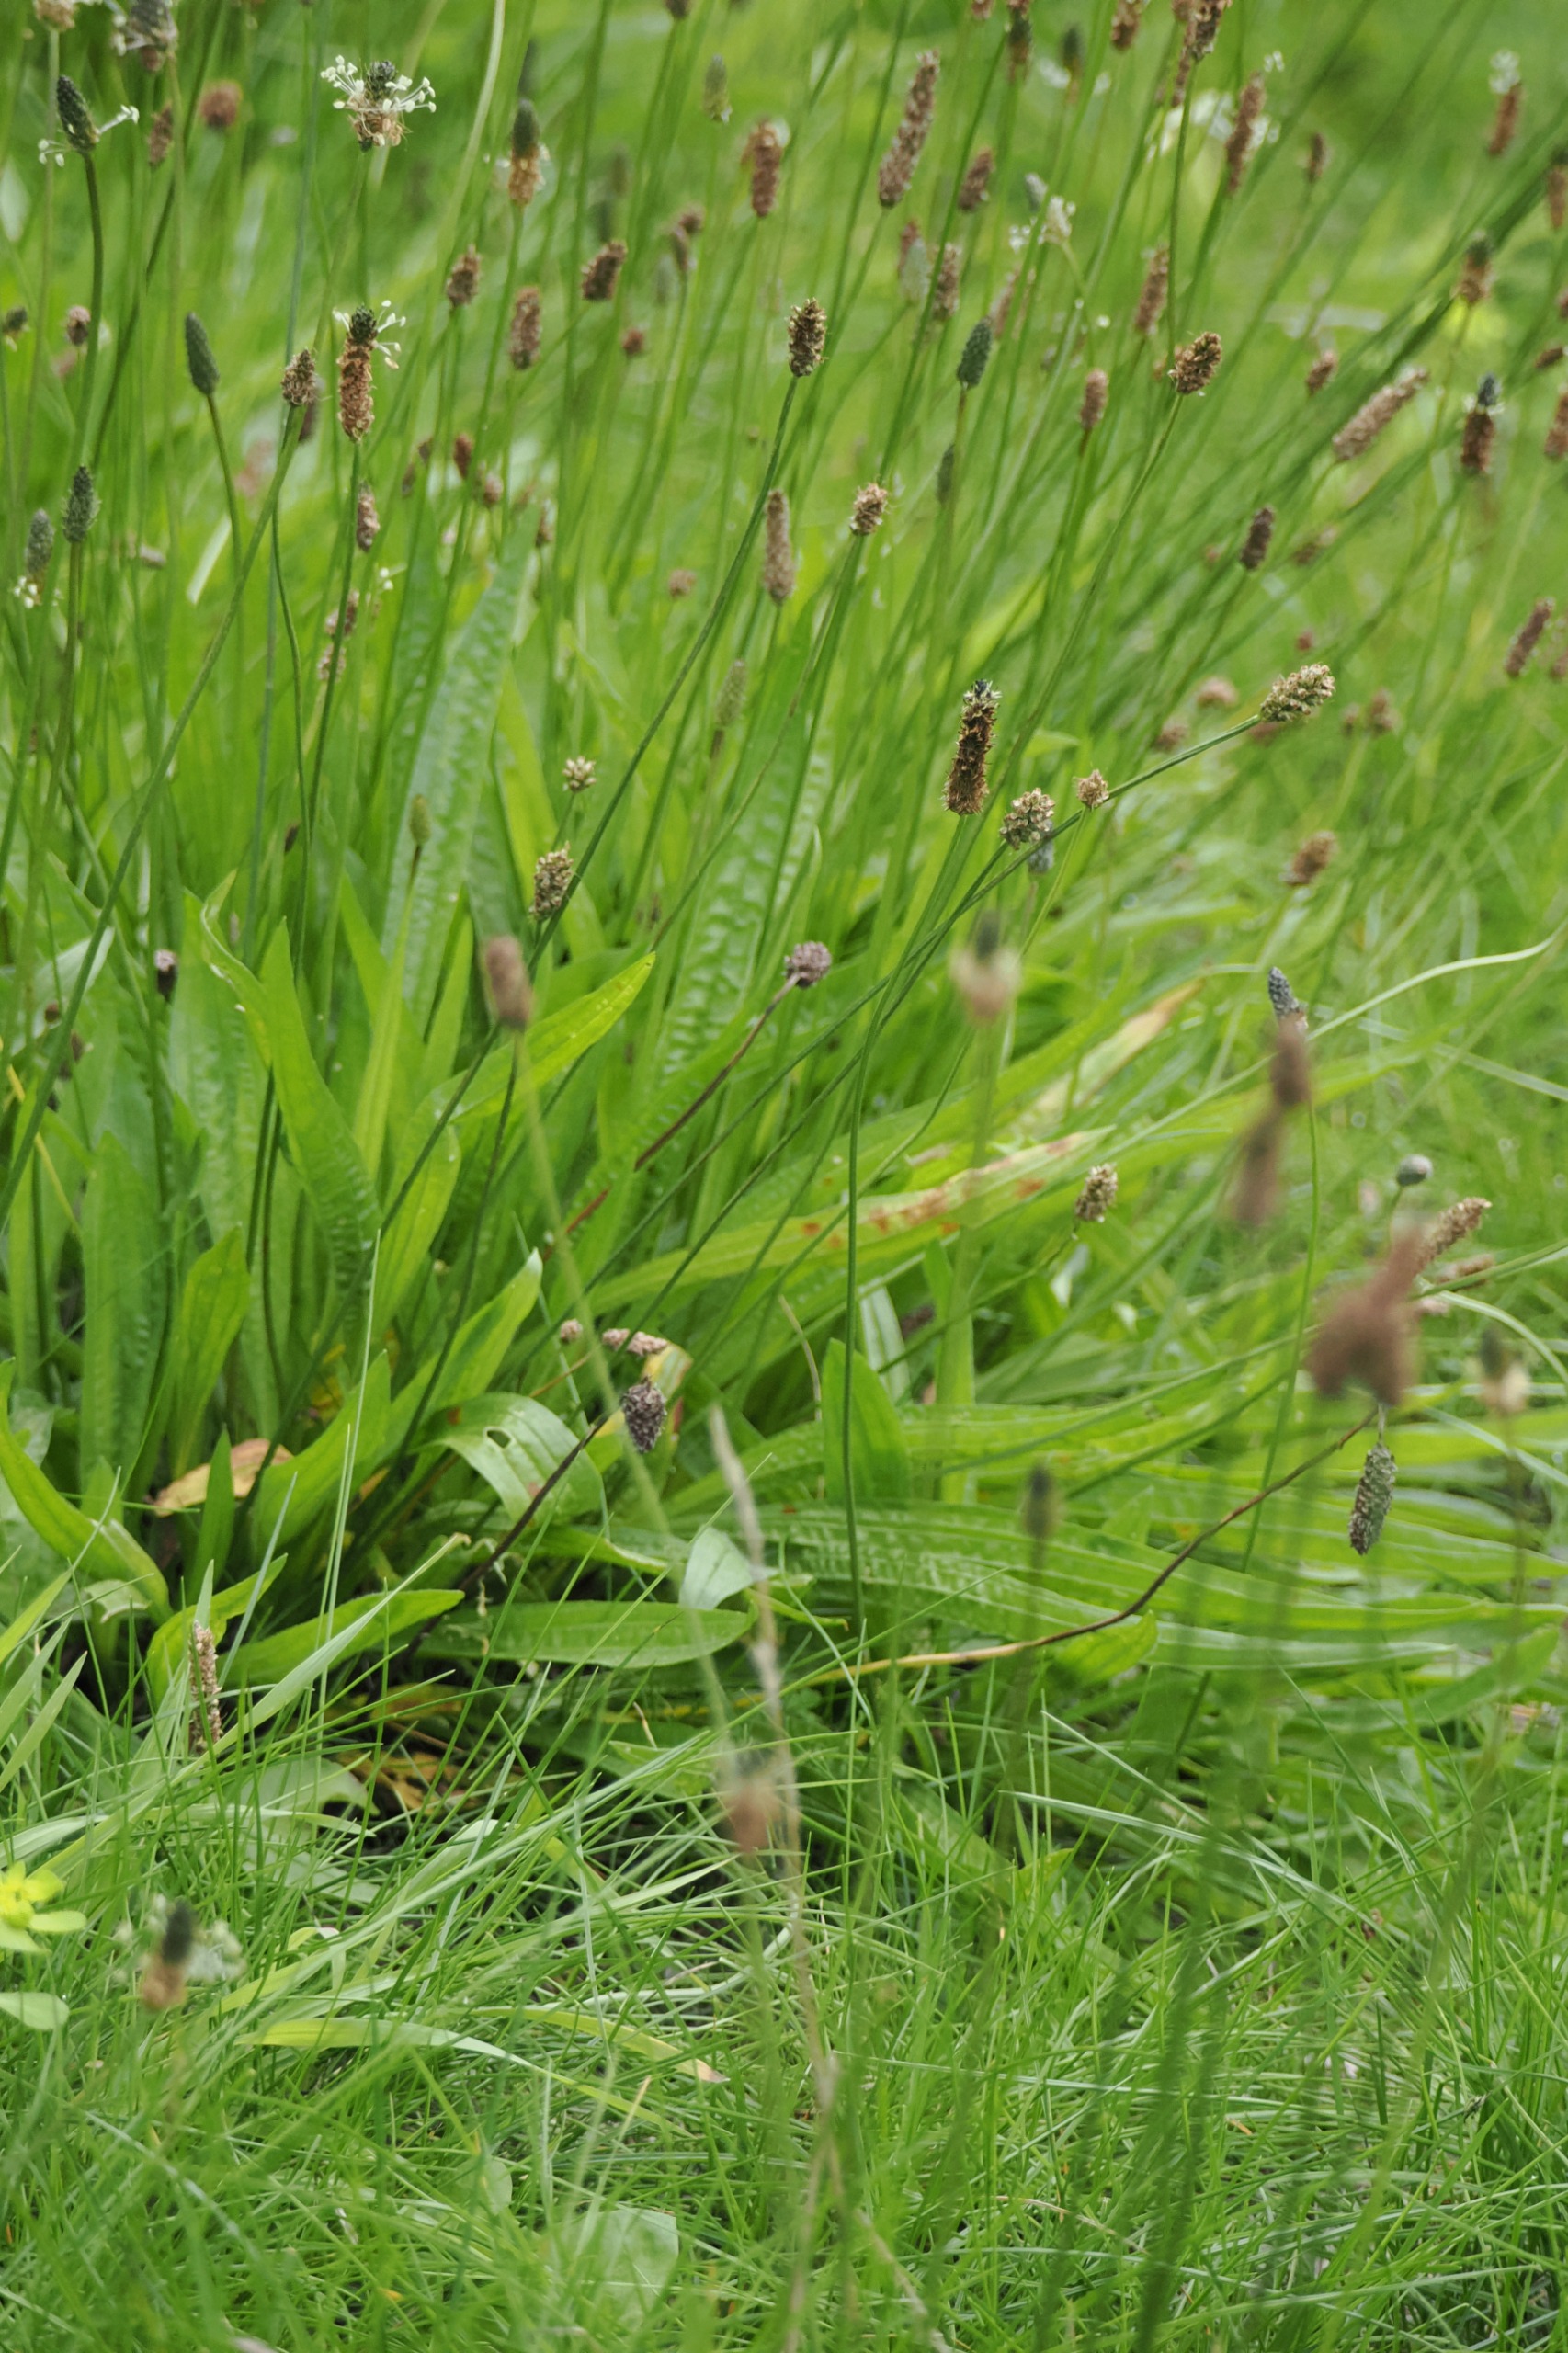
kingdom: Plantae
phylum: Tracheophyta
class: Magnoliopsida
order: Lamiales
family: Plantaginaceae
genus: Plantago
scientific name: Plantago lanceolata
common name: Lancet-vejbred
